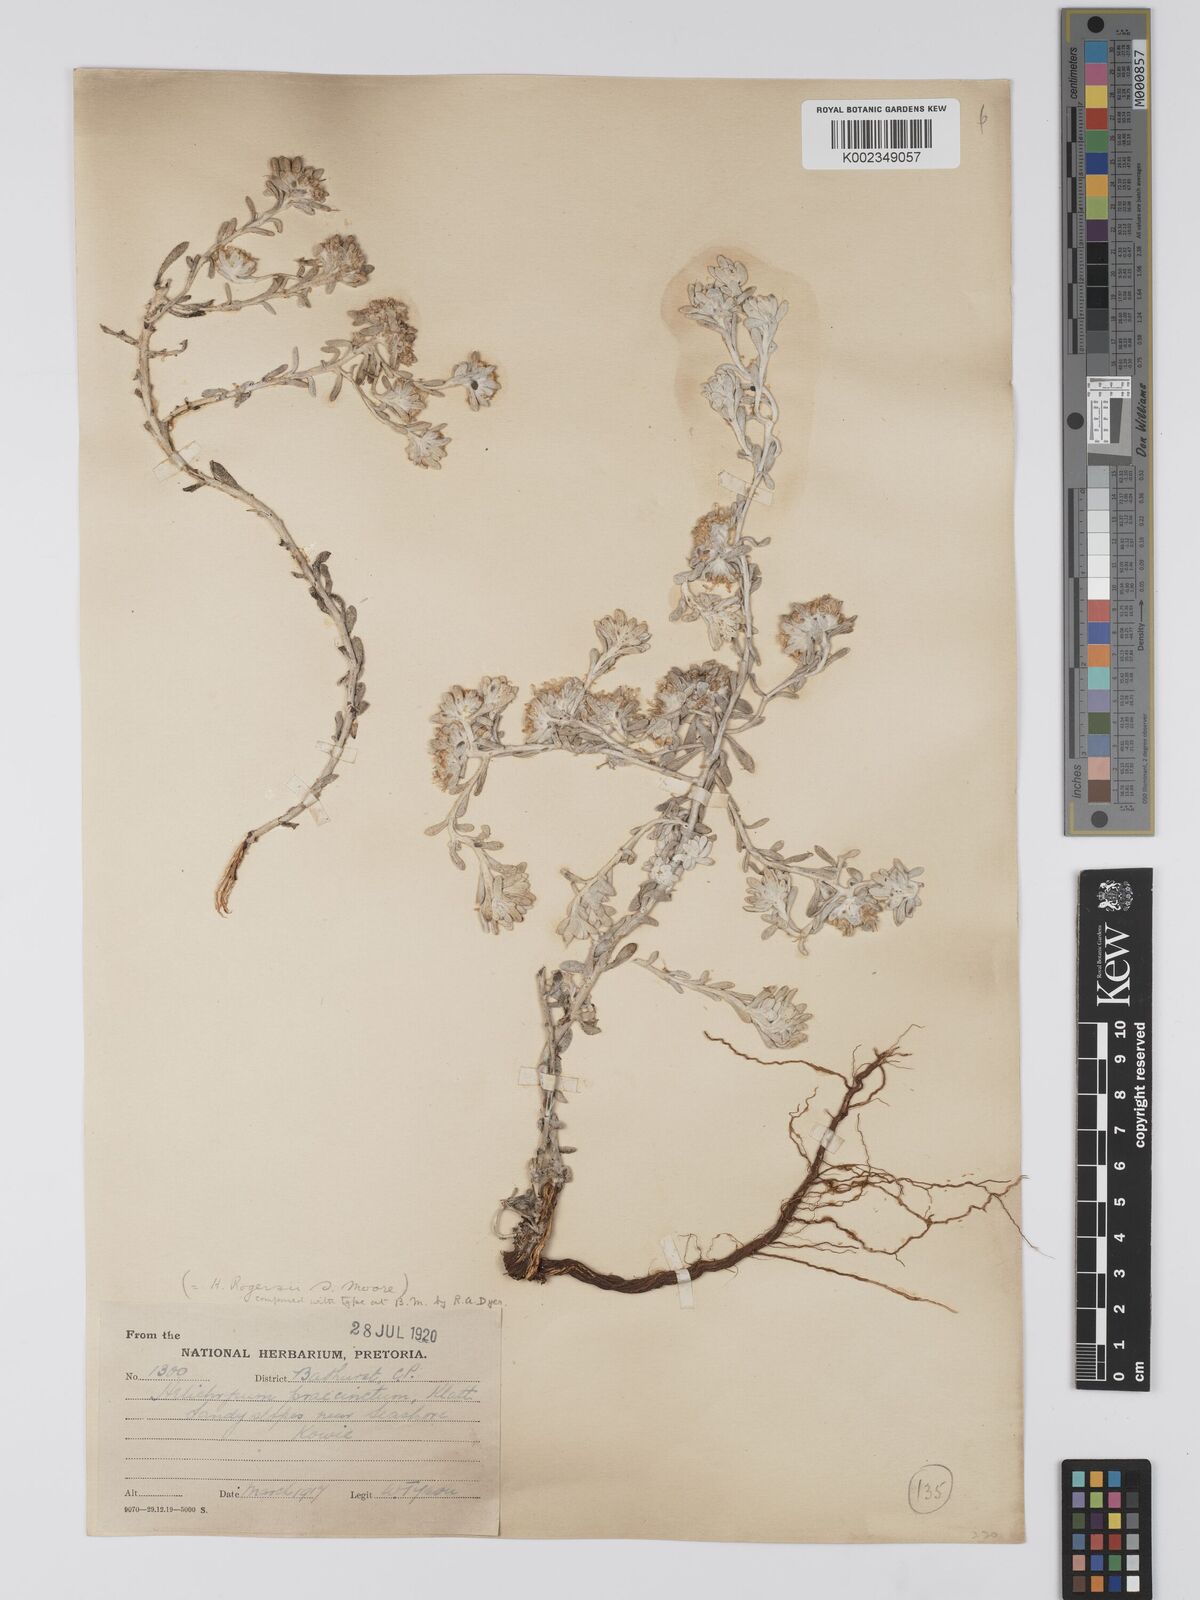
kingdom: Plantae
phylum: Tracheophyta
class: Magnoliopsida
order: Asterales
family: Asteraceae
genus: Helichrysum
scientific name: Helichrysum praecinctum
